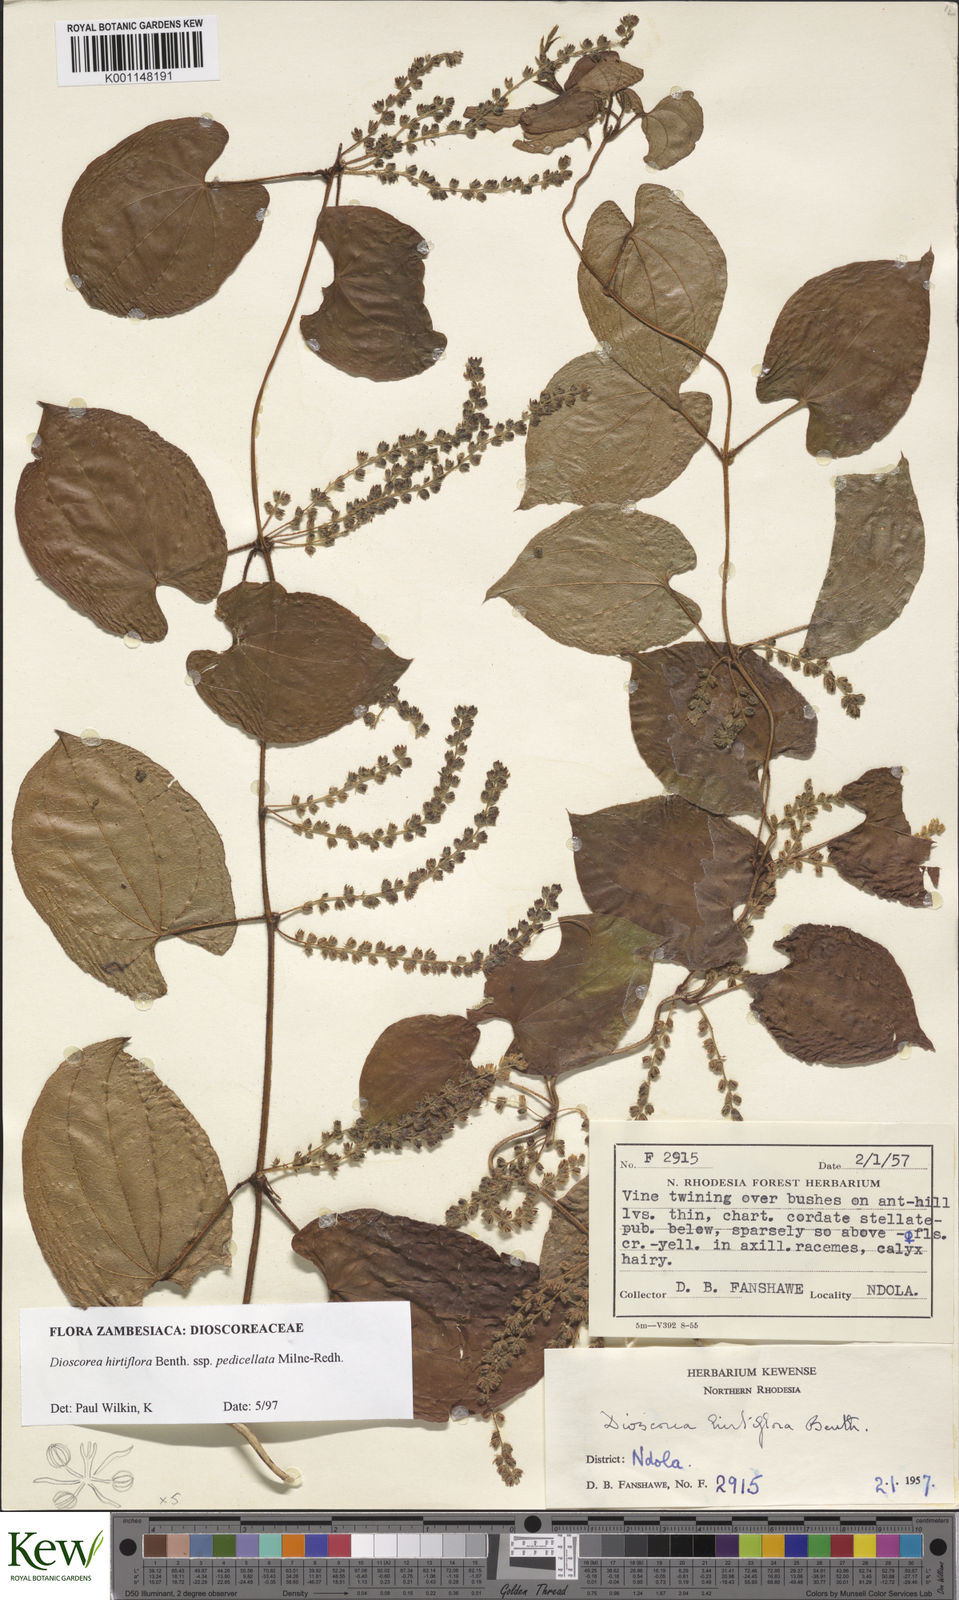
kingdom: Plantae
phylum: Tracheophyta
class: Liliopsida
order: Dioscoreales
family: Dioscoreaceae
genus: Dioscorea
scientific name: Dioscorea hirtiflora
